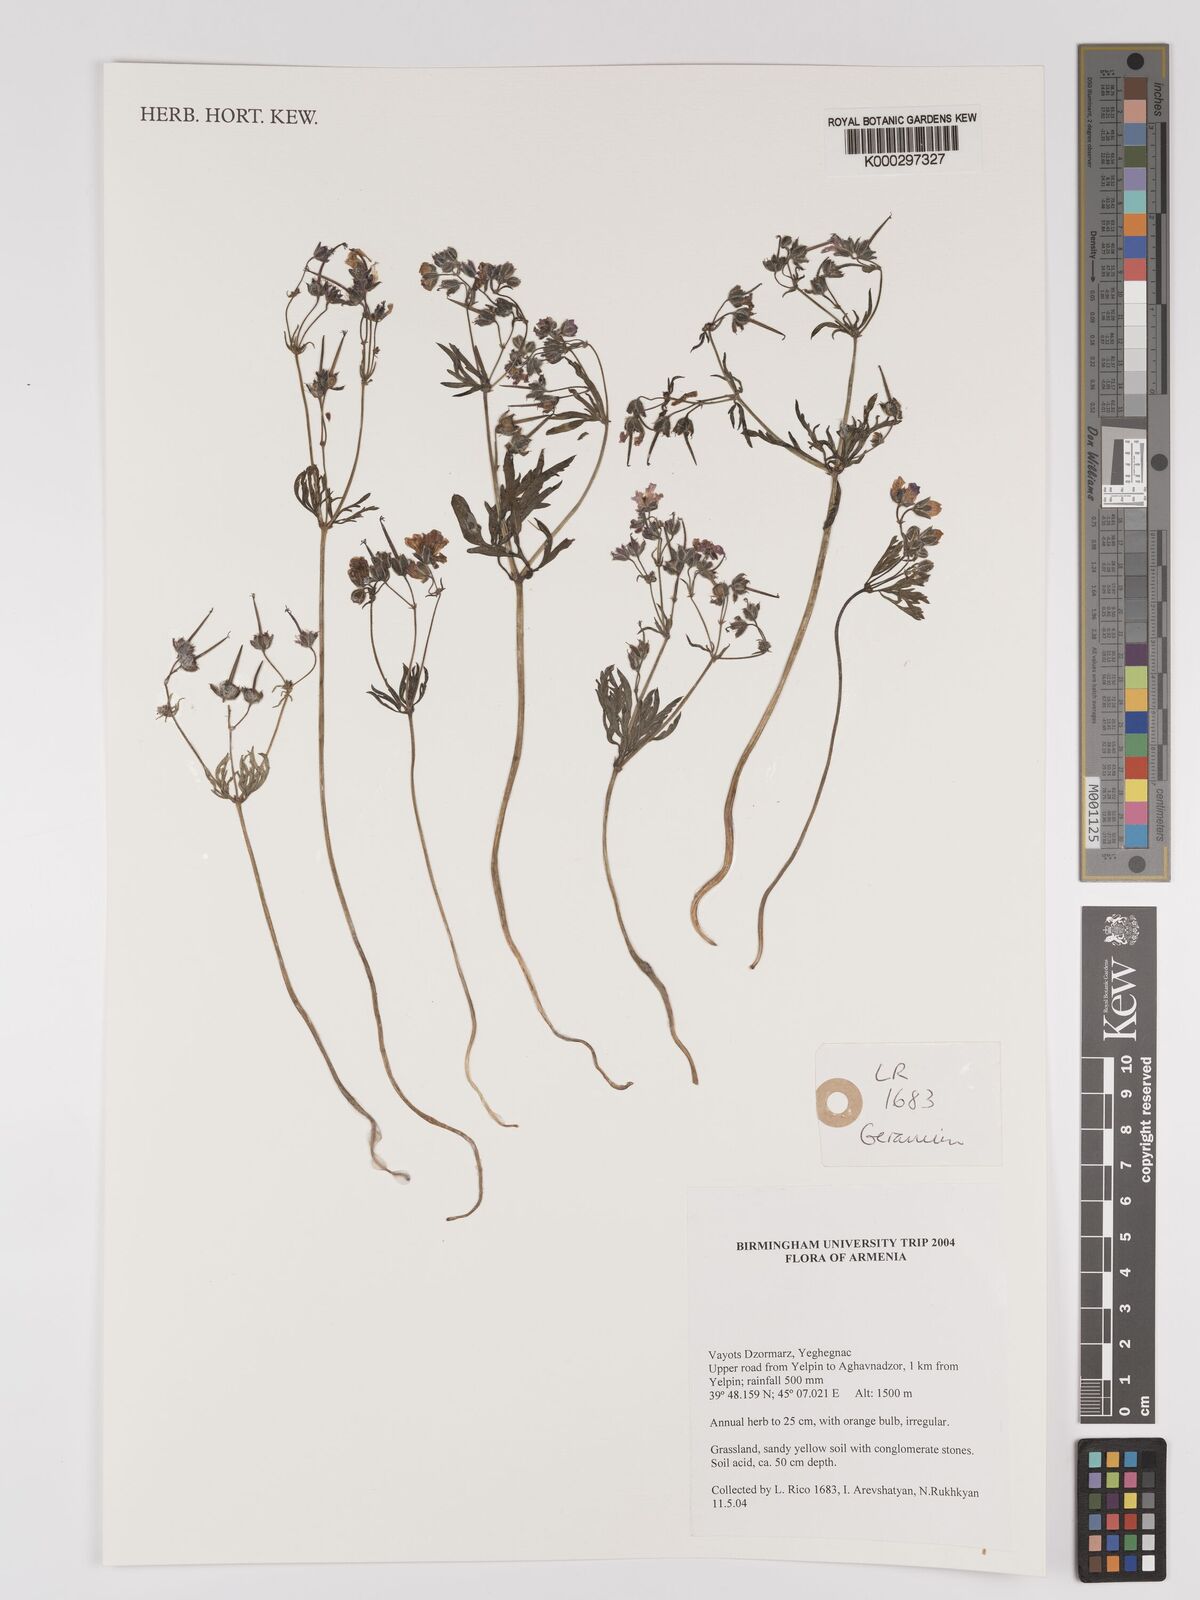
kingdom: Plantae
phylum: Tracheophyta
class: Magnoliopsida
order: Geraniales
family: Geraniaceae
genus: Geranium
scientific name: Geranium
